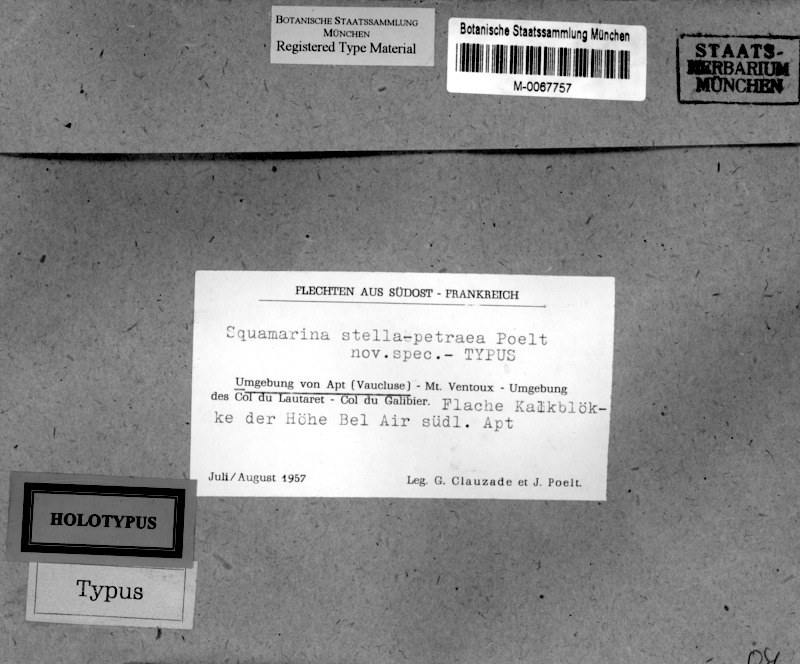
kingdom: Fungi
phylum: Ascomycota
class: Lecanoromycetes
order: Lecanorales
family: Stereocaulaceae
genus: Squamarina
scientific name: Squamarina stella-petraea
